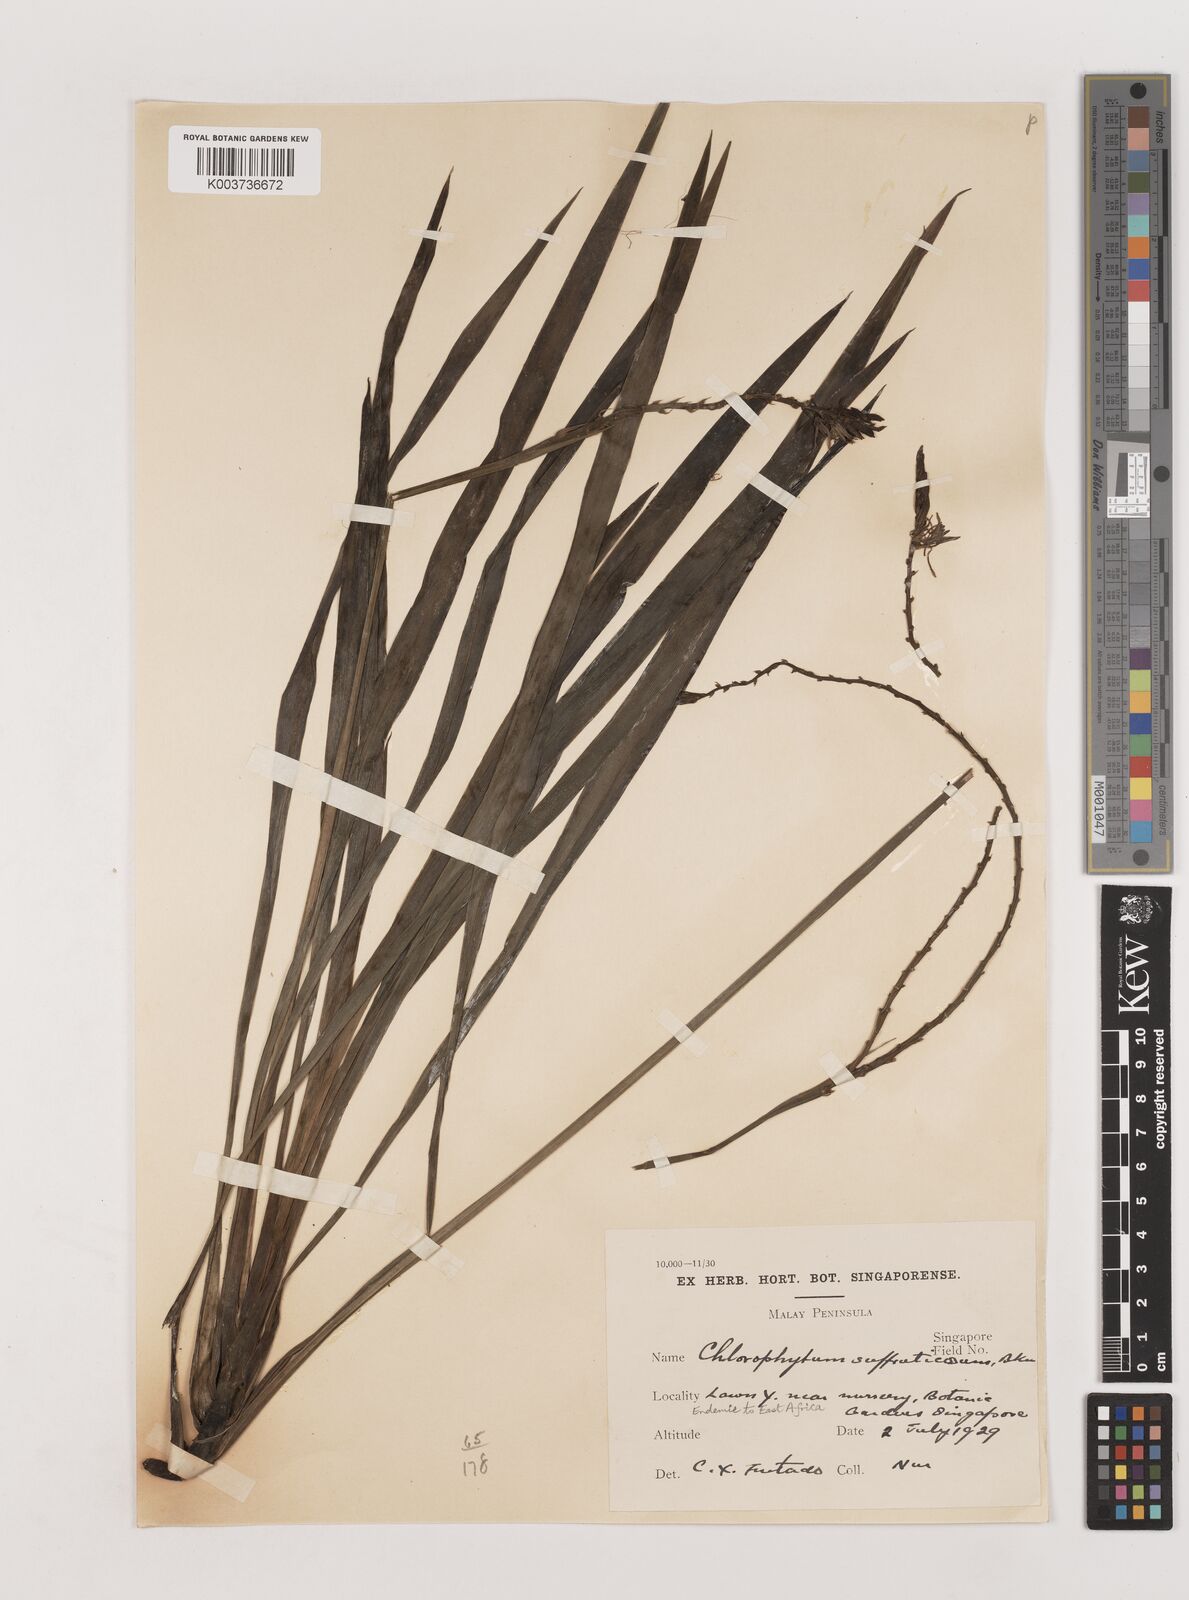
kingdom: Plantae
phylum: Tracheophyta
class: Liliopsida
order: Asparagales
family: Asparagaceae
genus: Chlorophytum
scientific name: Chlorophytum suffruticosum
